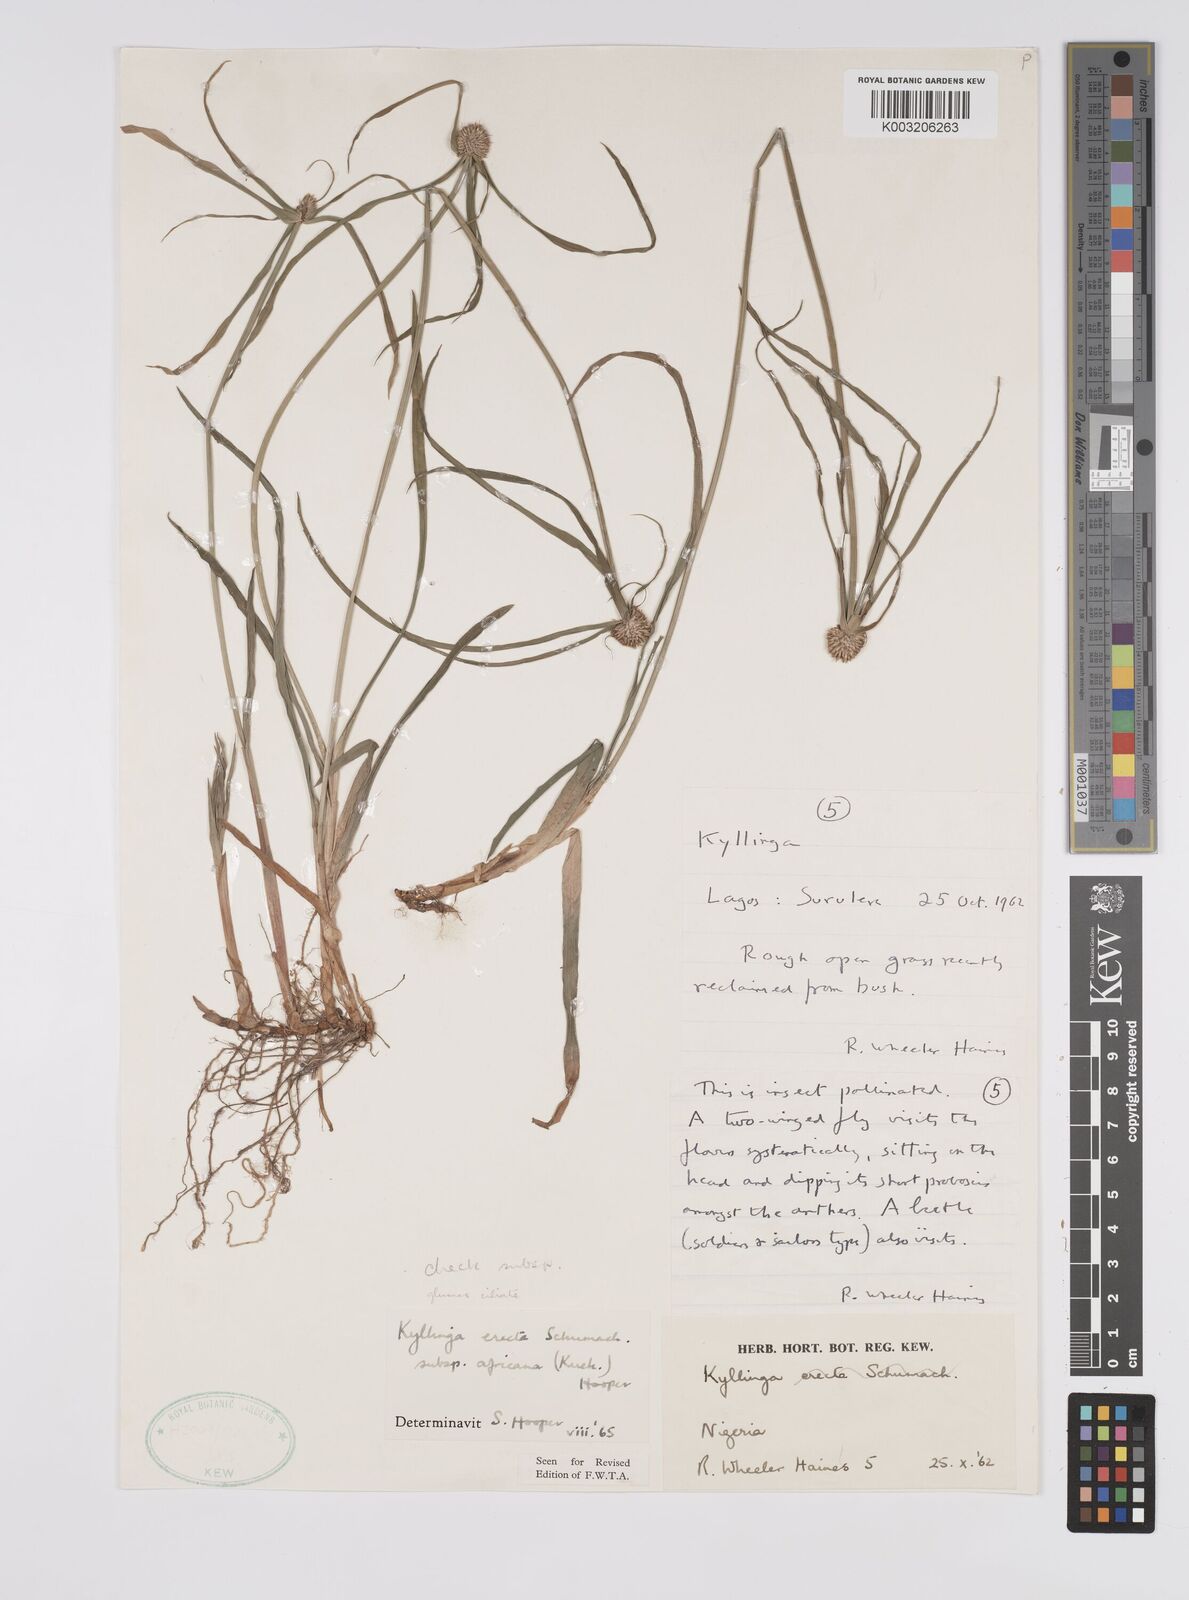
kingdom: Plantae
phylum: Tracheophyta
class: Liliopsida
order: Poales
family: Cyperaceae
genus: Cyperus
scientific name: Cyperus
